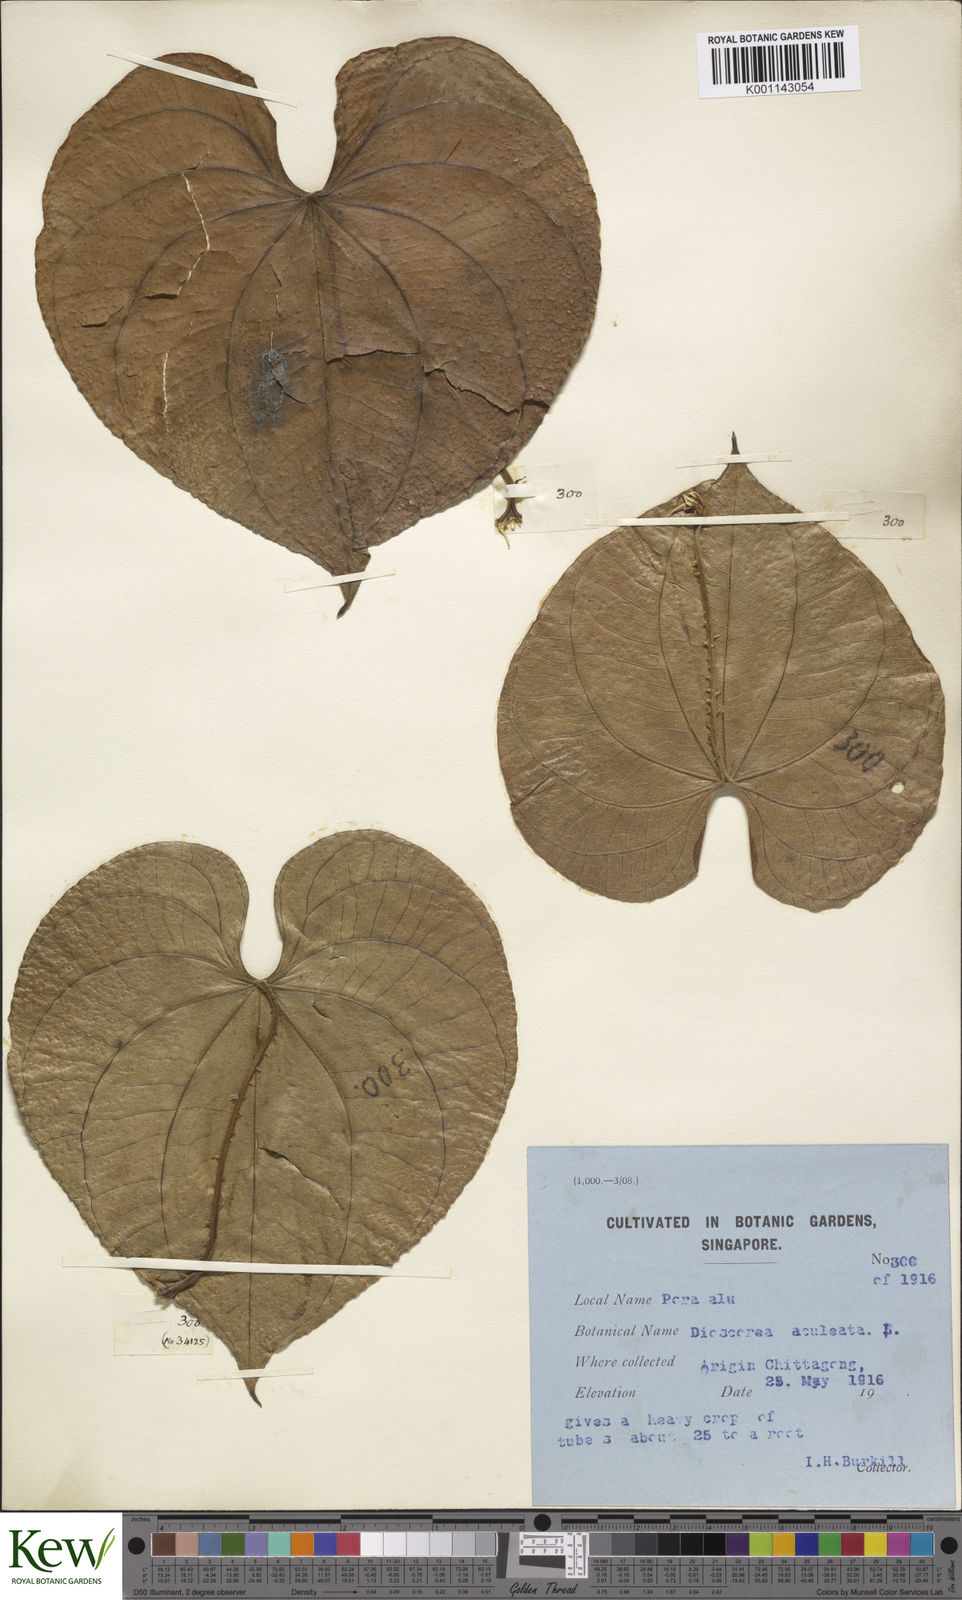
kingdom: Plantae
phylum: Tracheophyta
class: Liliopsida
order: Dioscoreales
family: Dioscoreaceae
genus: Dioscorea
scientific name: Dioscorea esculenta
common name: Chinese yam
